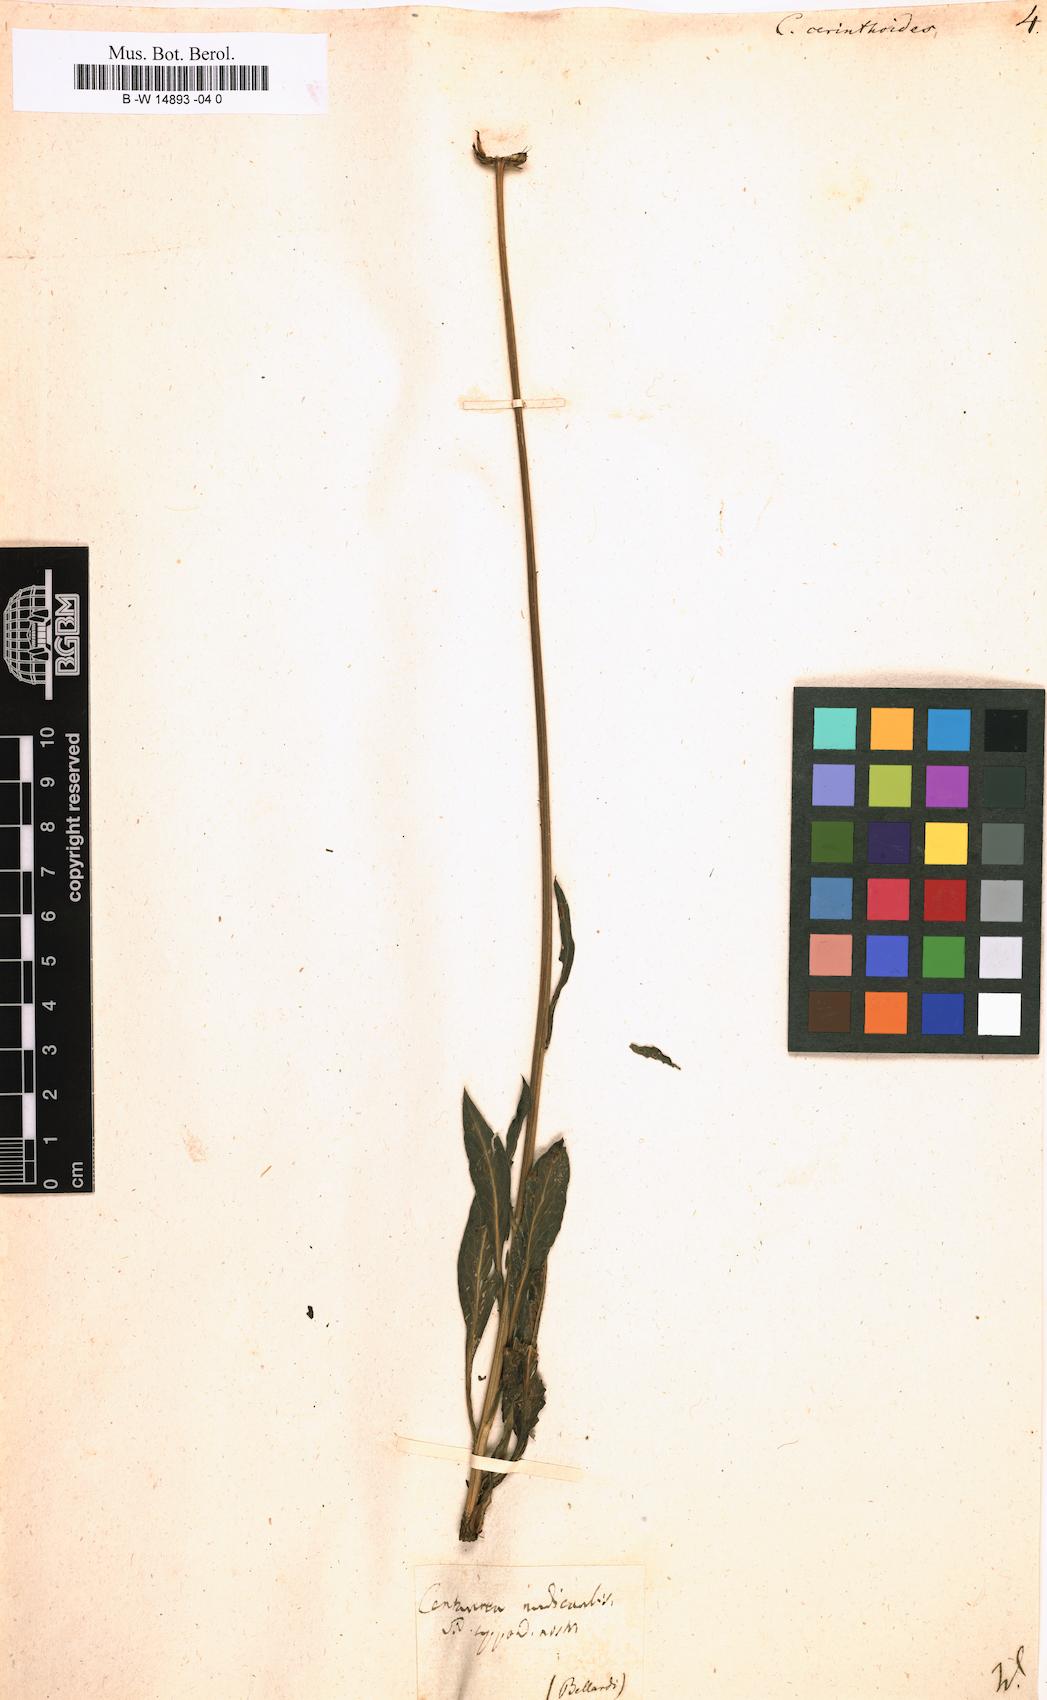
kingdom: Plantae
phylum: Tracheophyta
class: Magnoliopsida
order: Asterales
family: Asteraceae
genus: Klasea
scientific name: Klasea nudicaulis
